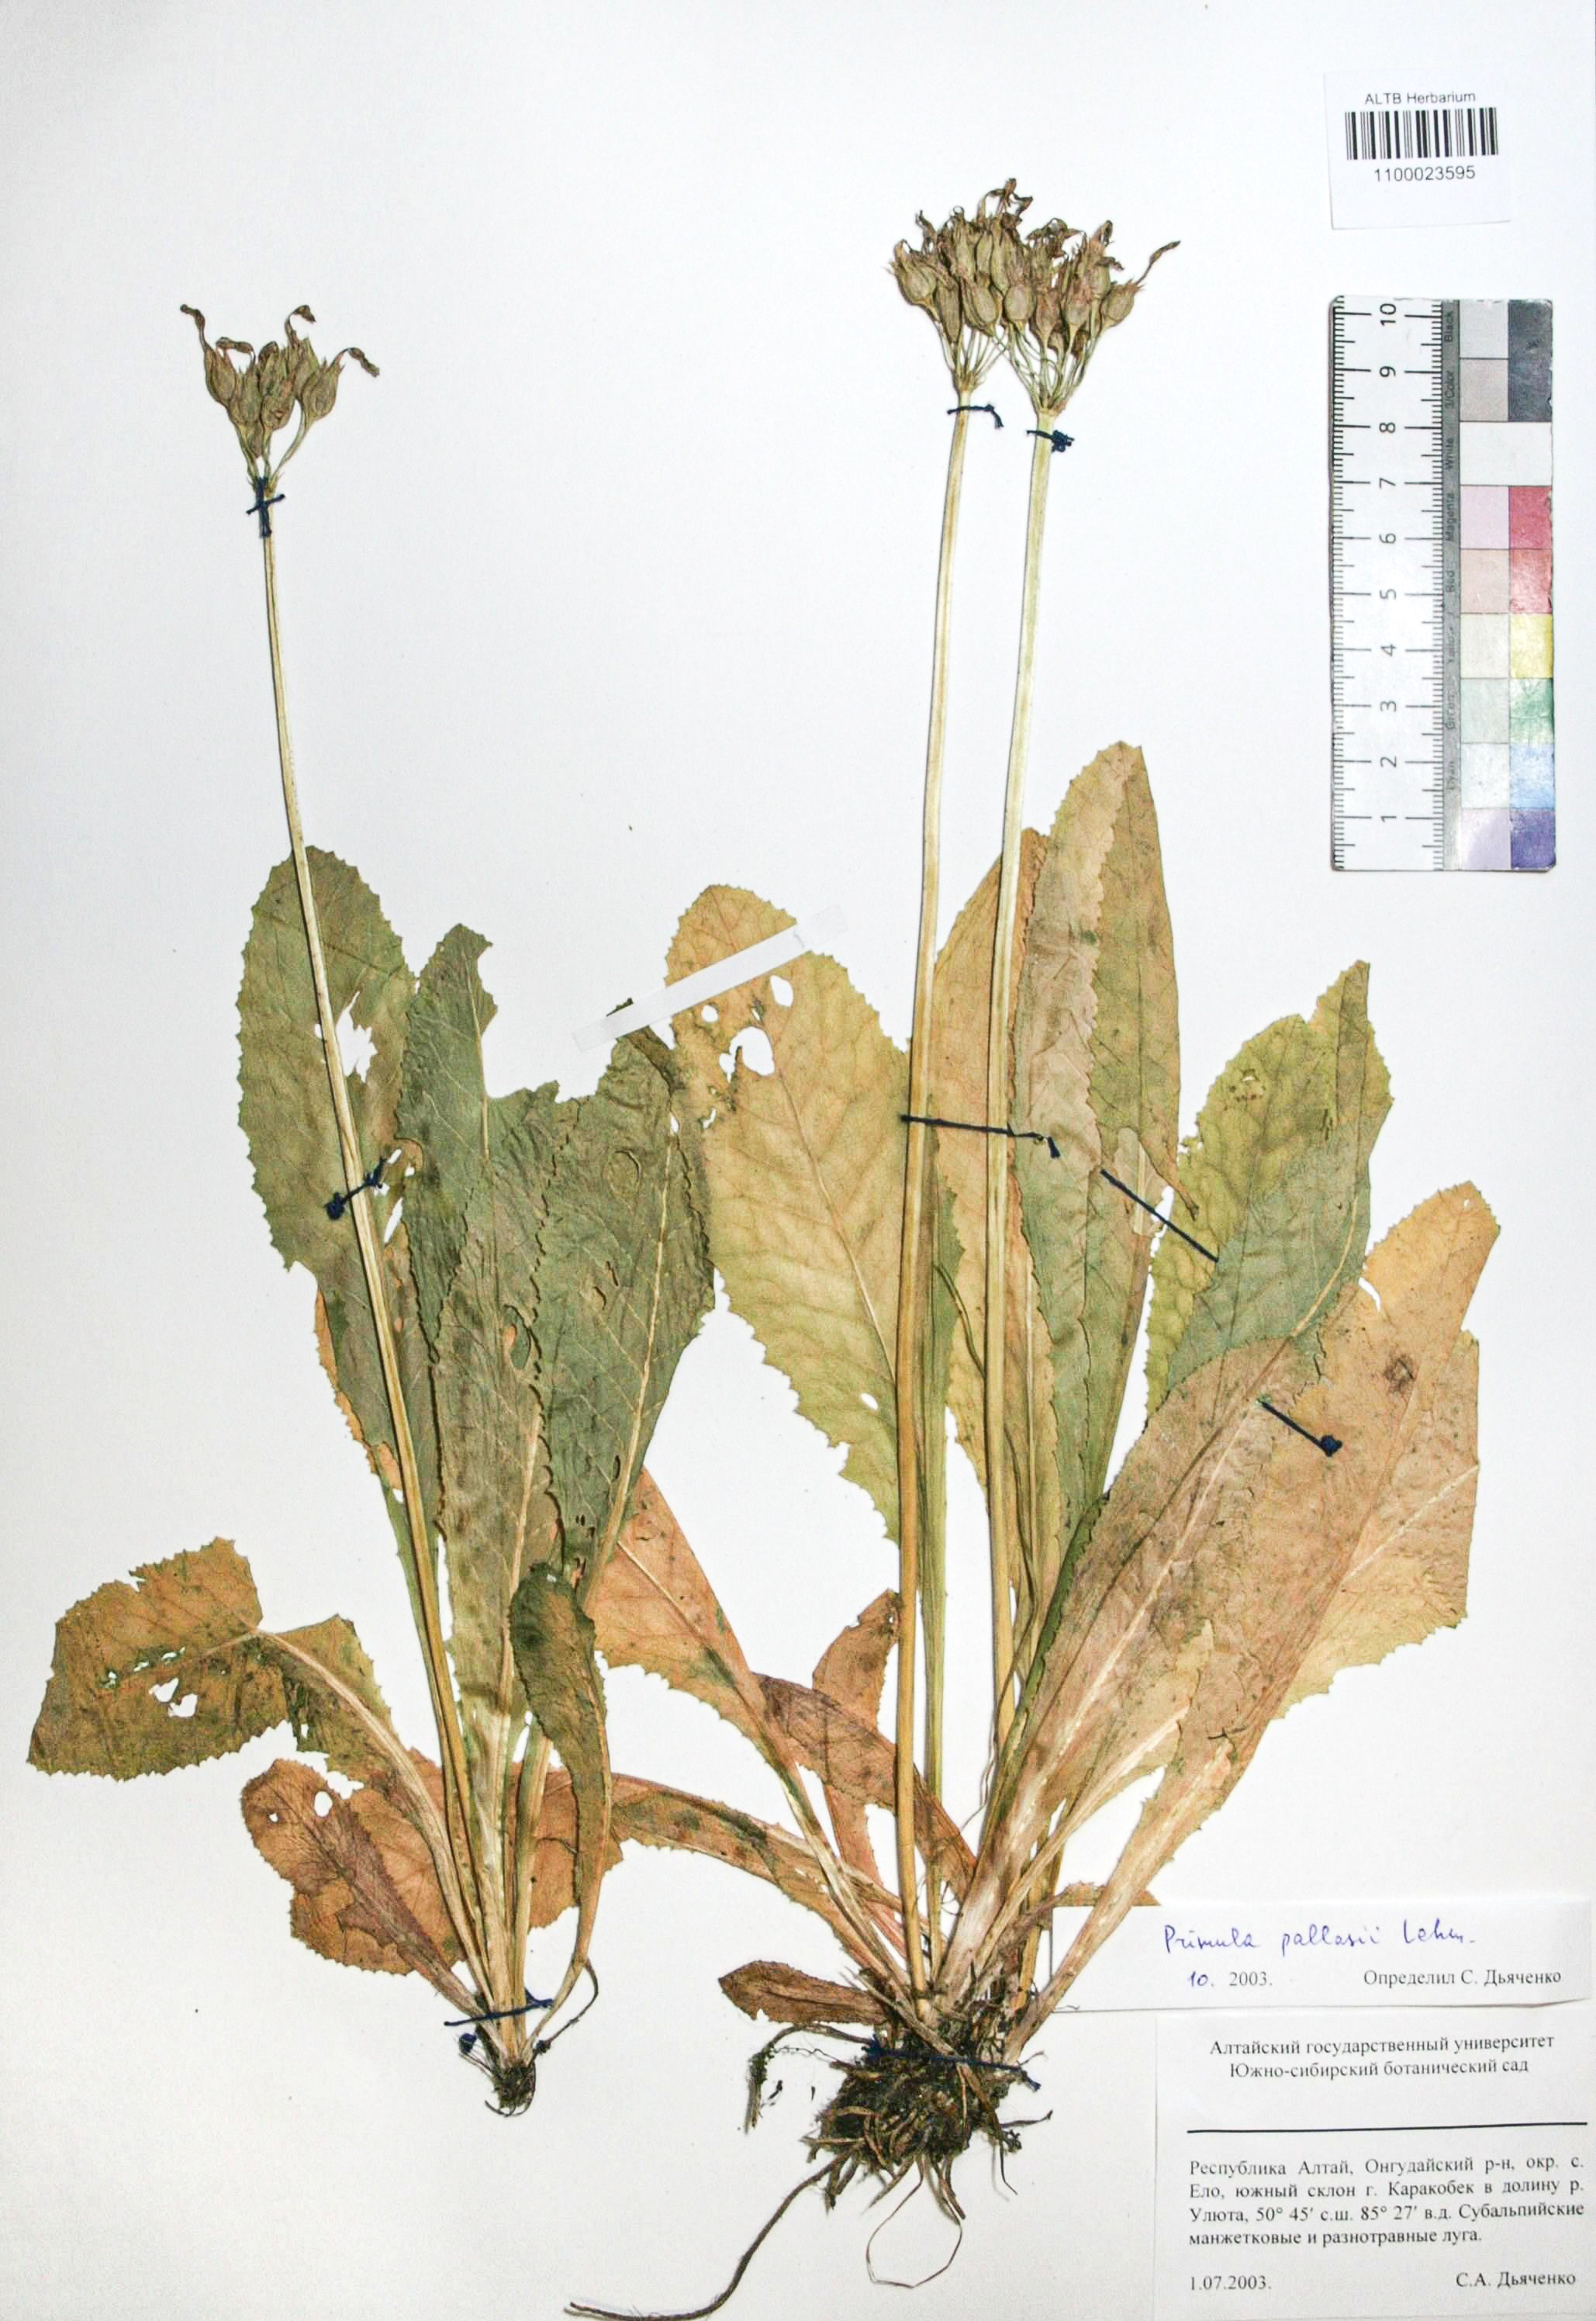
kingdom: Plantae
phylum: Tracheophyta
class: Magnoliopsida
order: Ericales
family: Primulaceae
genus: Primula
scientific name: Primula elatior
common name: Oxlip
